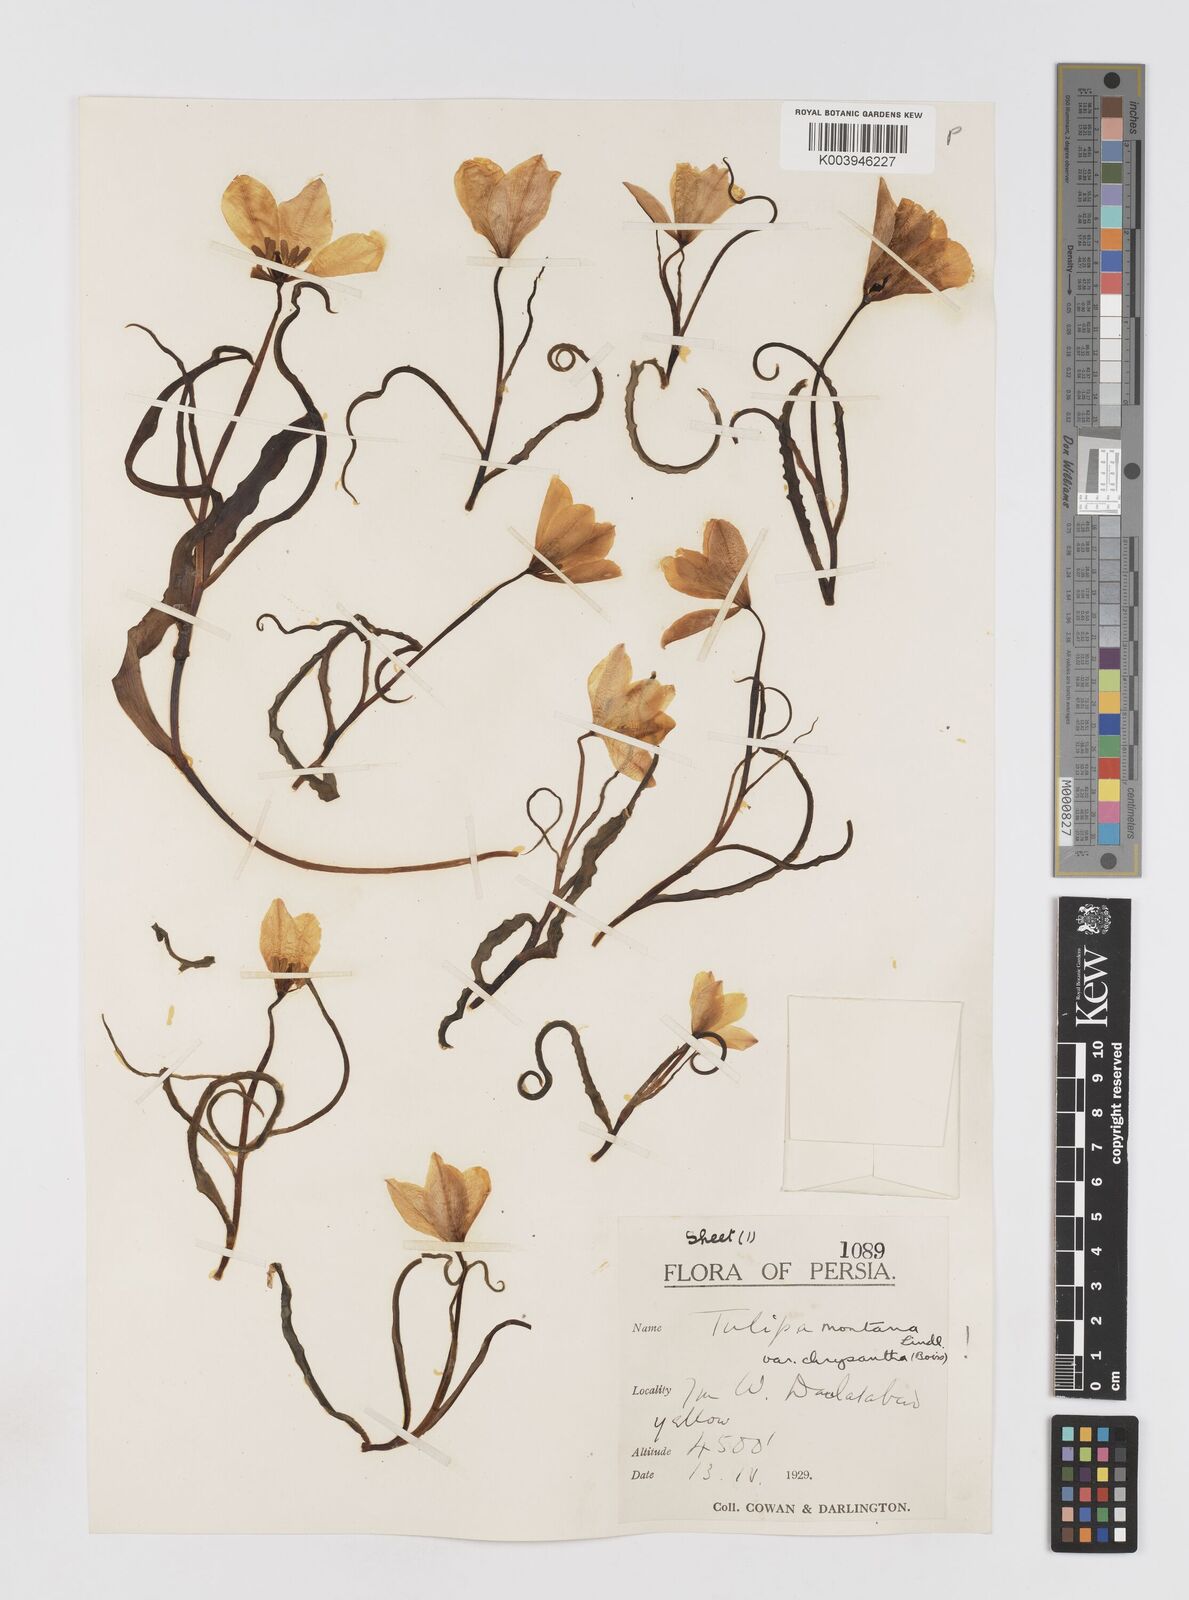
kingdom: Plantae
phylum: Tracheophyta
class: Liliopsida
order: Liliales
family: Liliaceae
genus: Tulipa
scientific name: Tulipa montana
